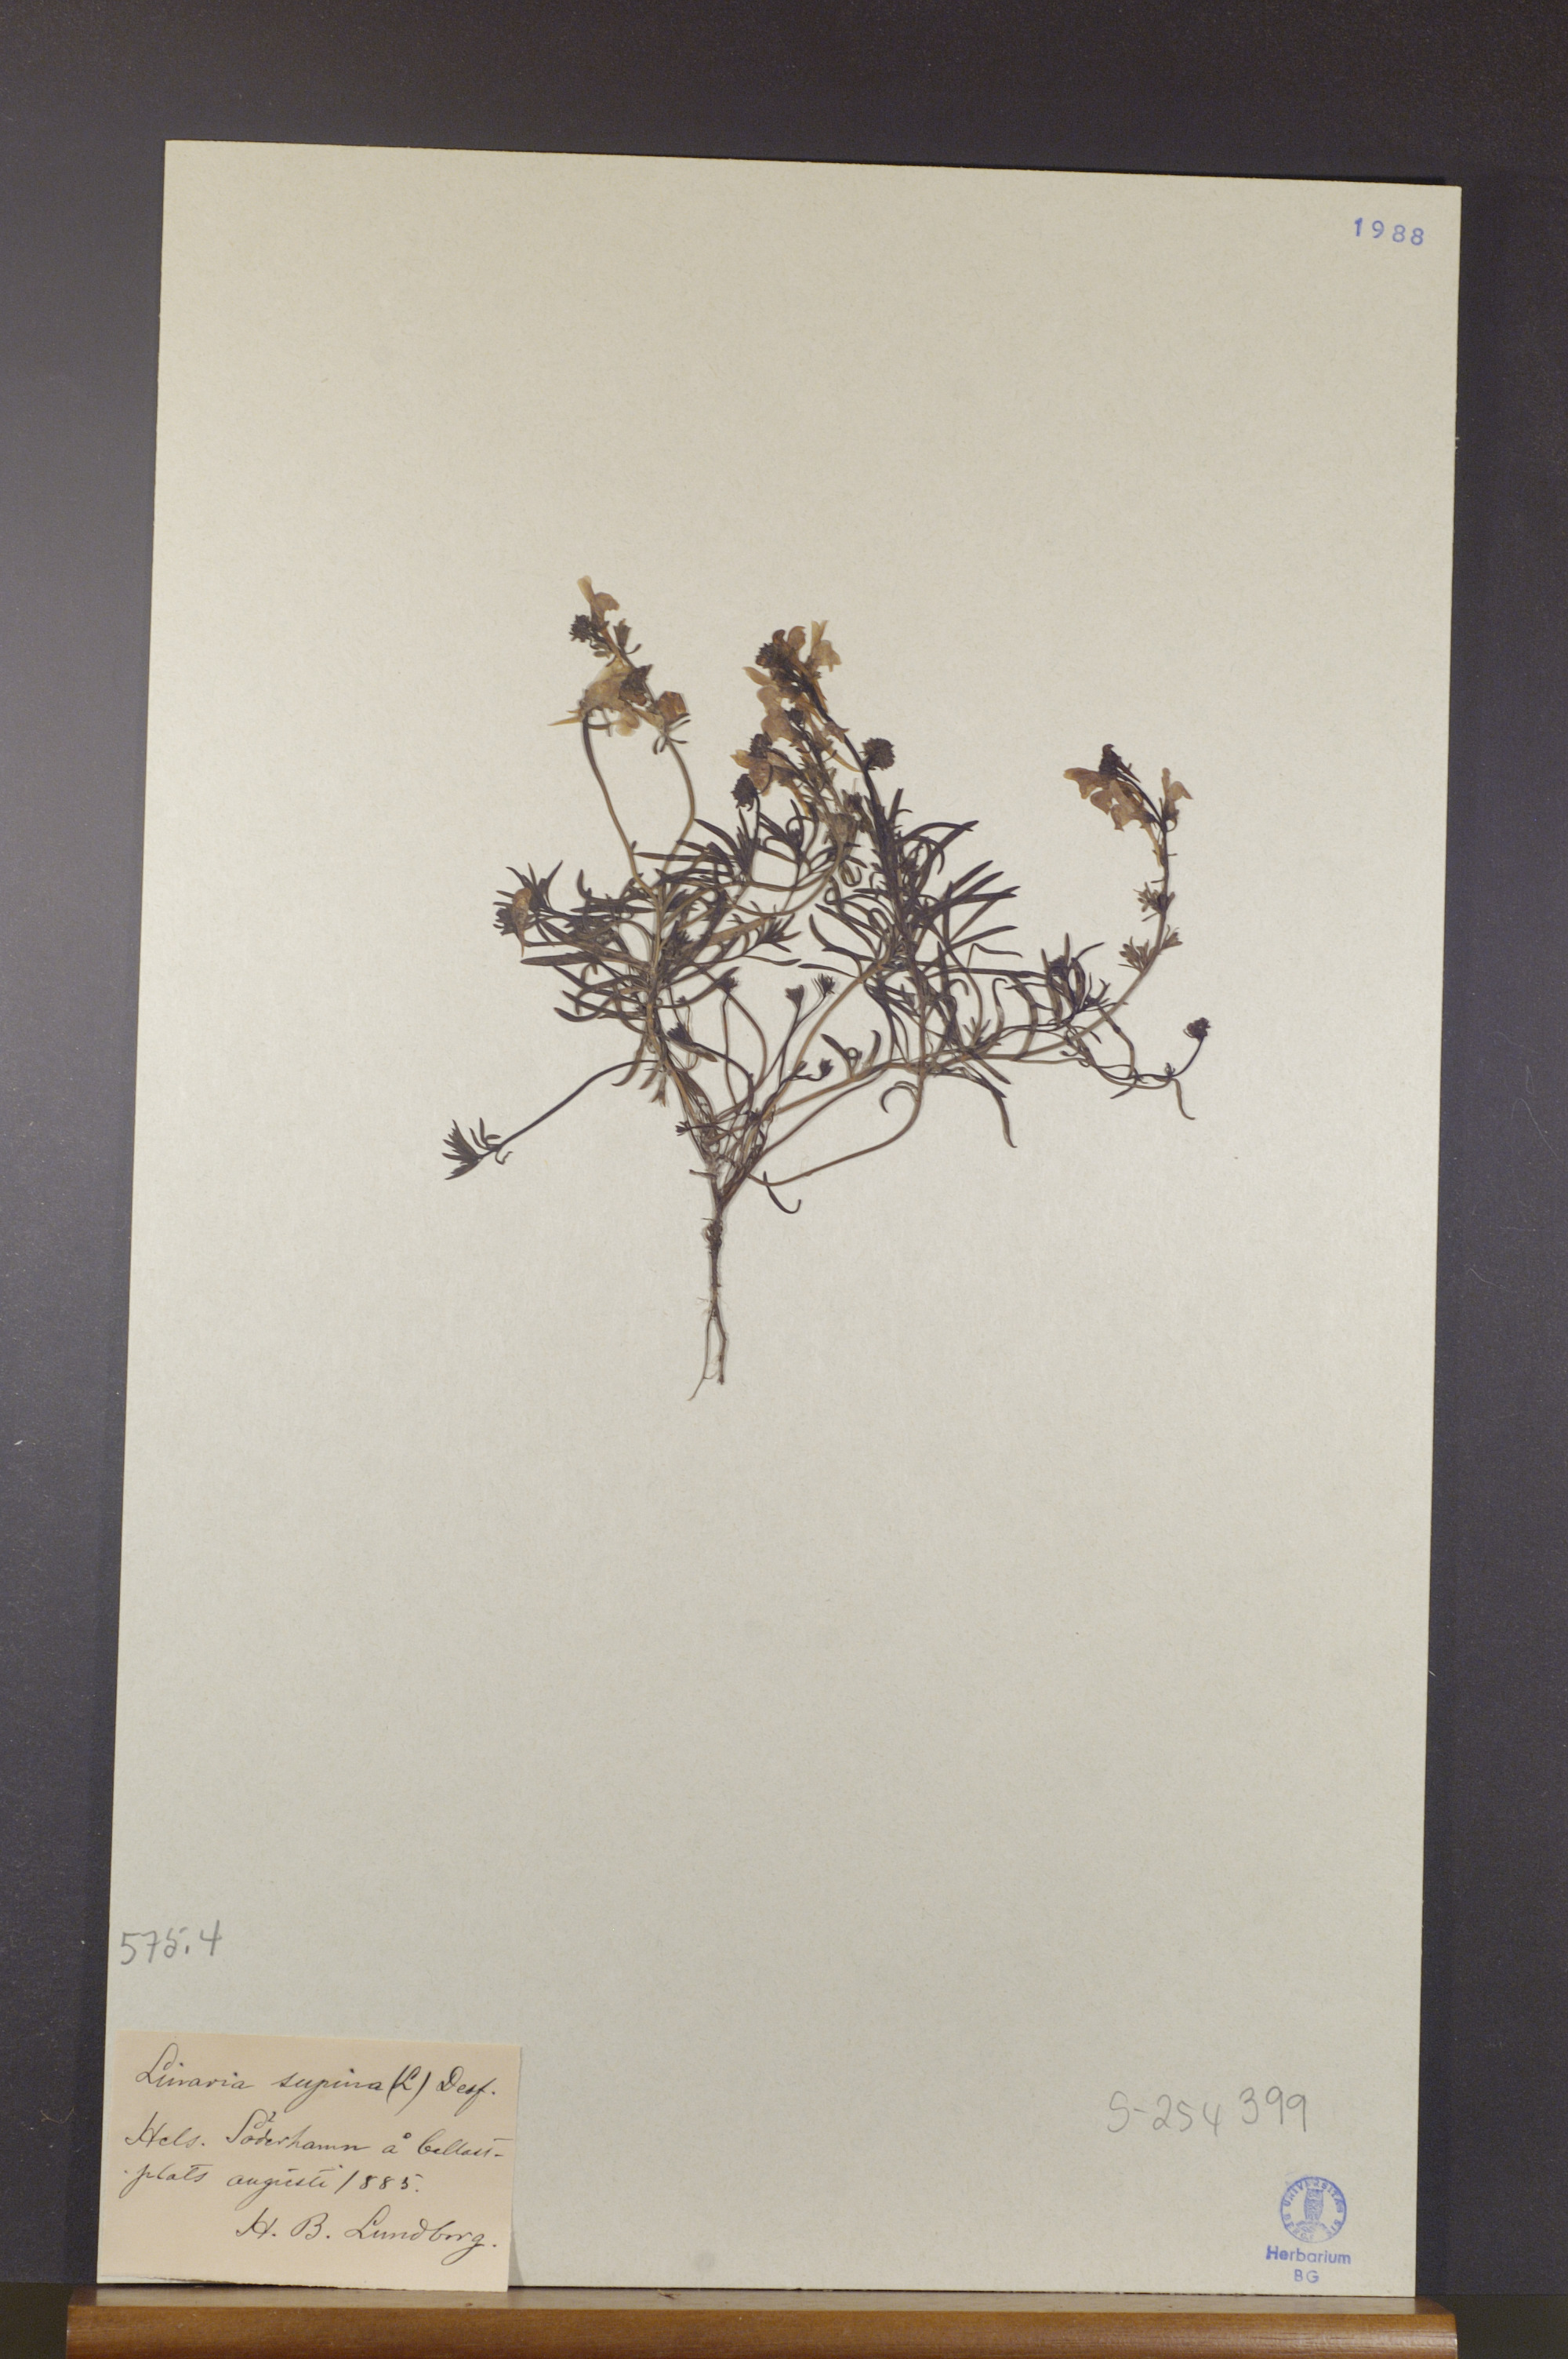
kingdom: Plantae
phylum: Tracheophyta
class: Magnoliopsida
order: Lamiales
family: Plantaginaceae
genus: Linaria
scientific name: Linaria supina
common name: Prostrate toadflax
